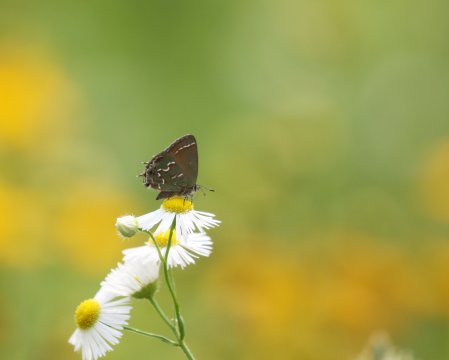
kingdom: Animalia
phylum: Arthropoda
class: Insecta
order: Lepidoptera
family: Lycaenidae
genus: Mitoura
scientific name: Mitoura gryneus
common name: Juniper Hairstreak
